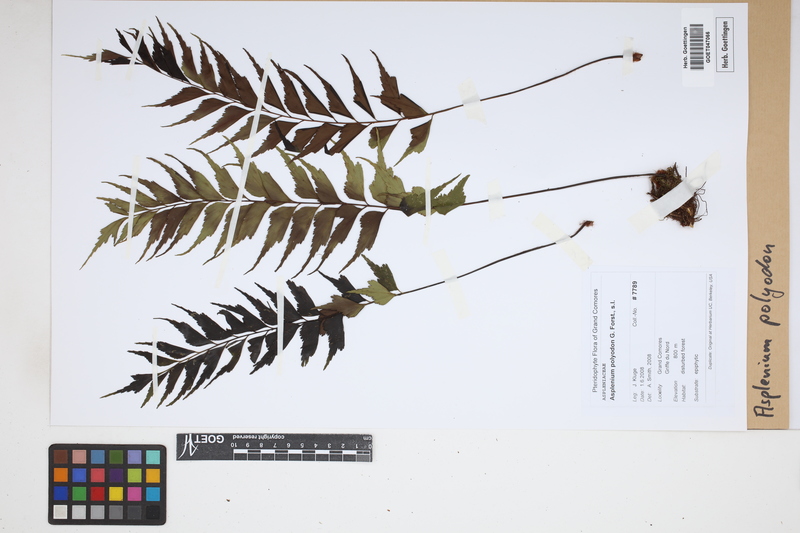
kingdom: Plantae
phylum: Tracheophyta
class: Polypodiopsida
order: Polypodiales
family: Aspleniaceae
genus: Asplenium
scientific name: Asplenium polyodon
